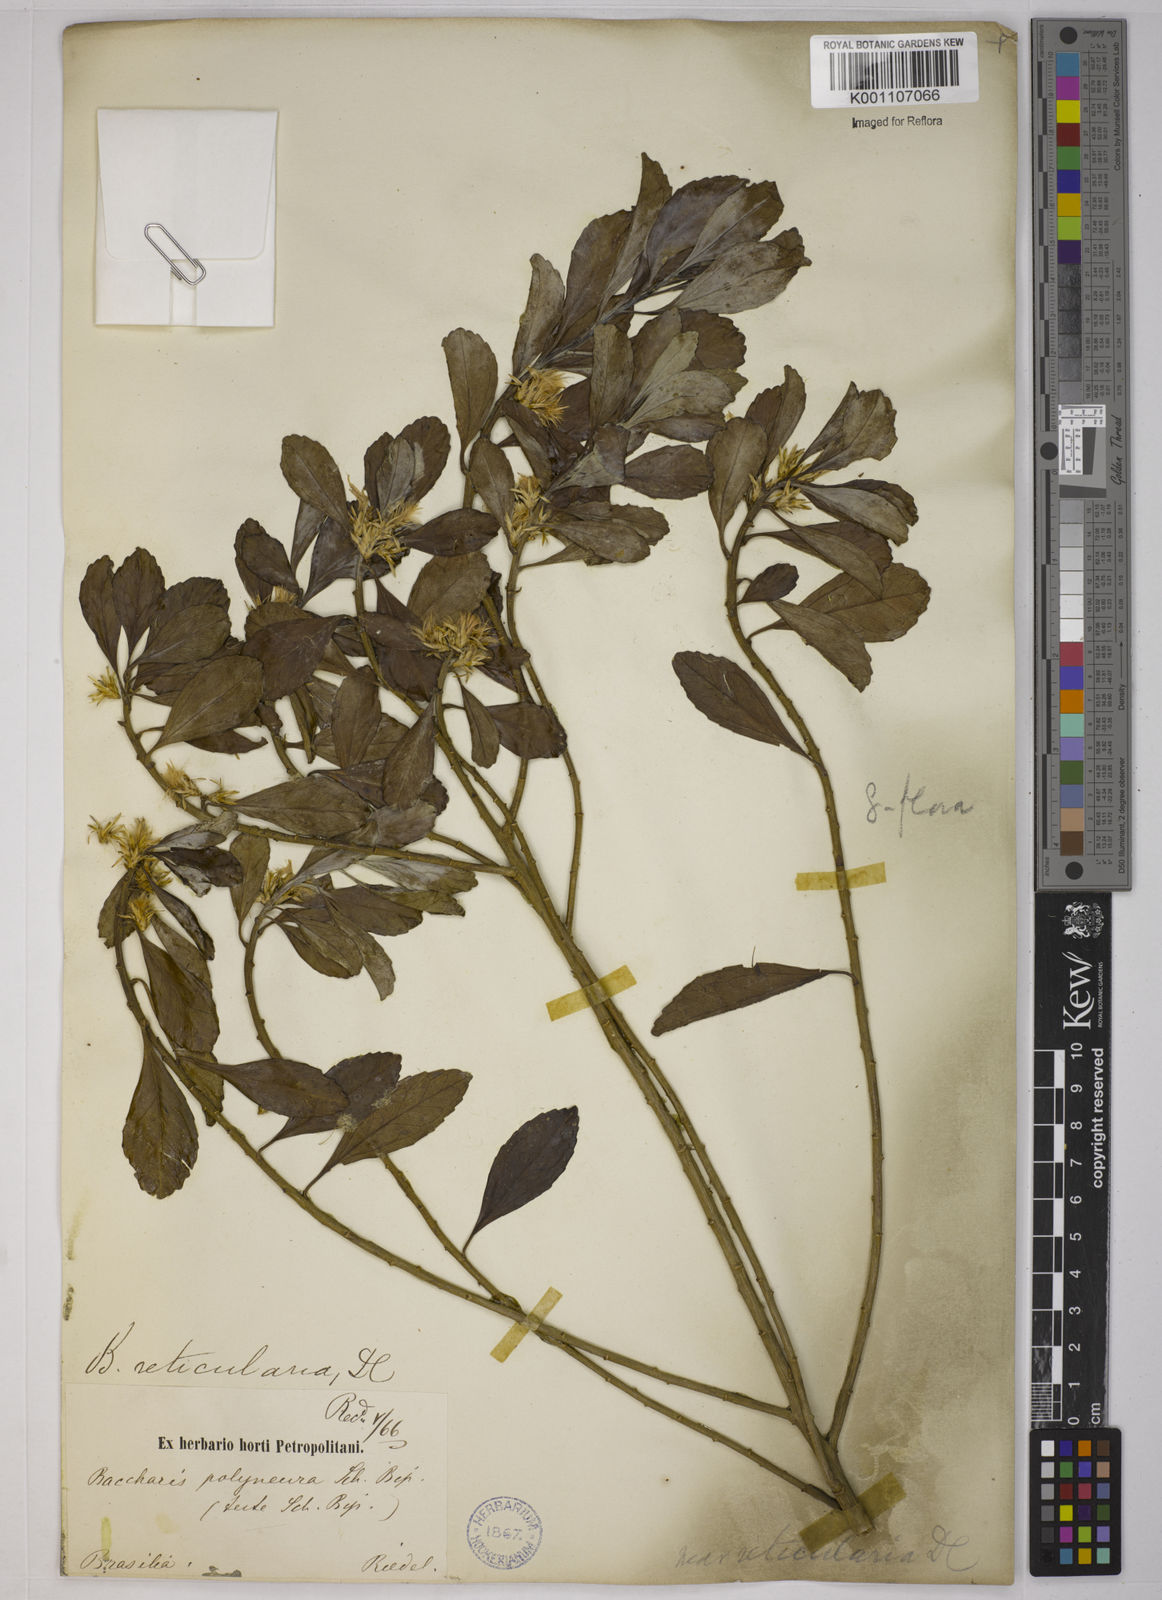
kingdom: Plantae
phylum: Tracheophyta
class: Magnoliopsida
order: Asterales
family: Asteraceae
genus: Baccharis
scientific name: Baccharis reticularia
